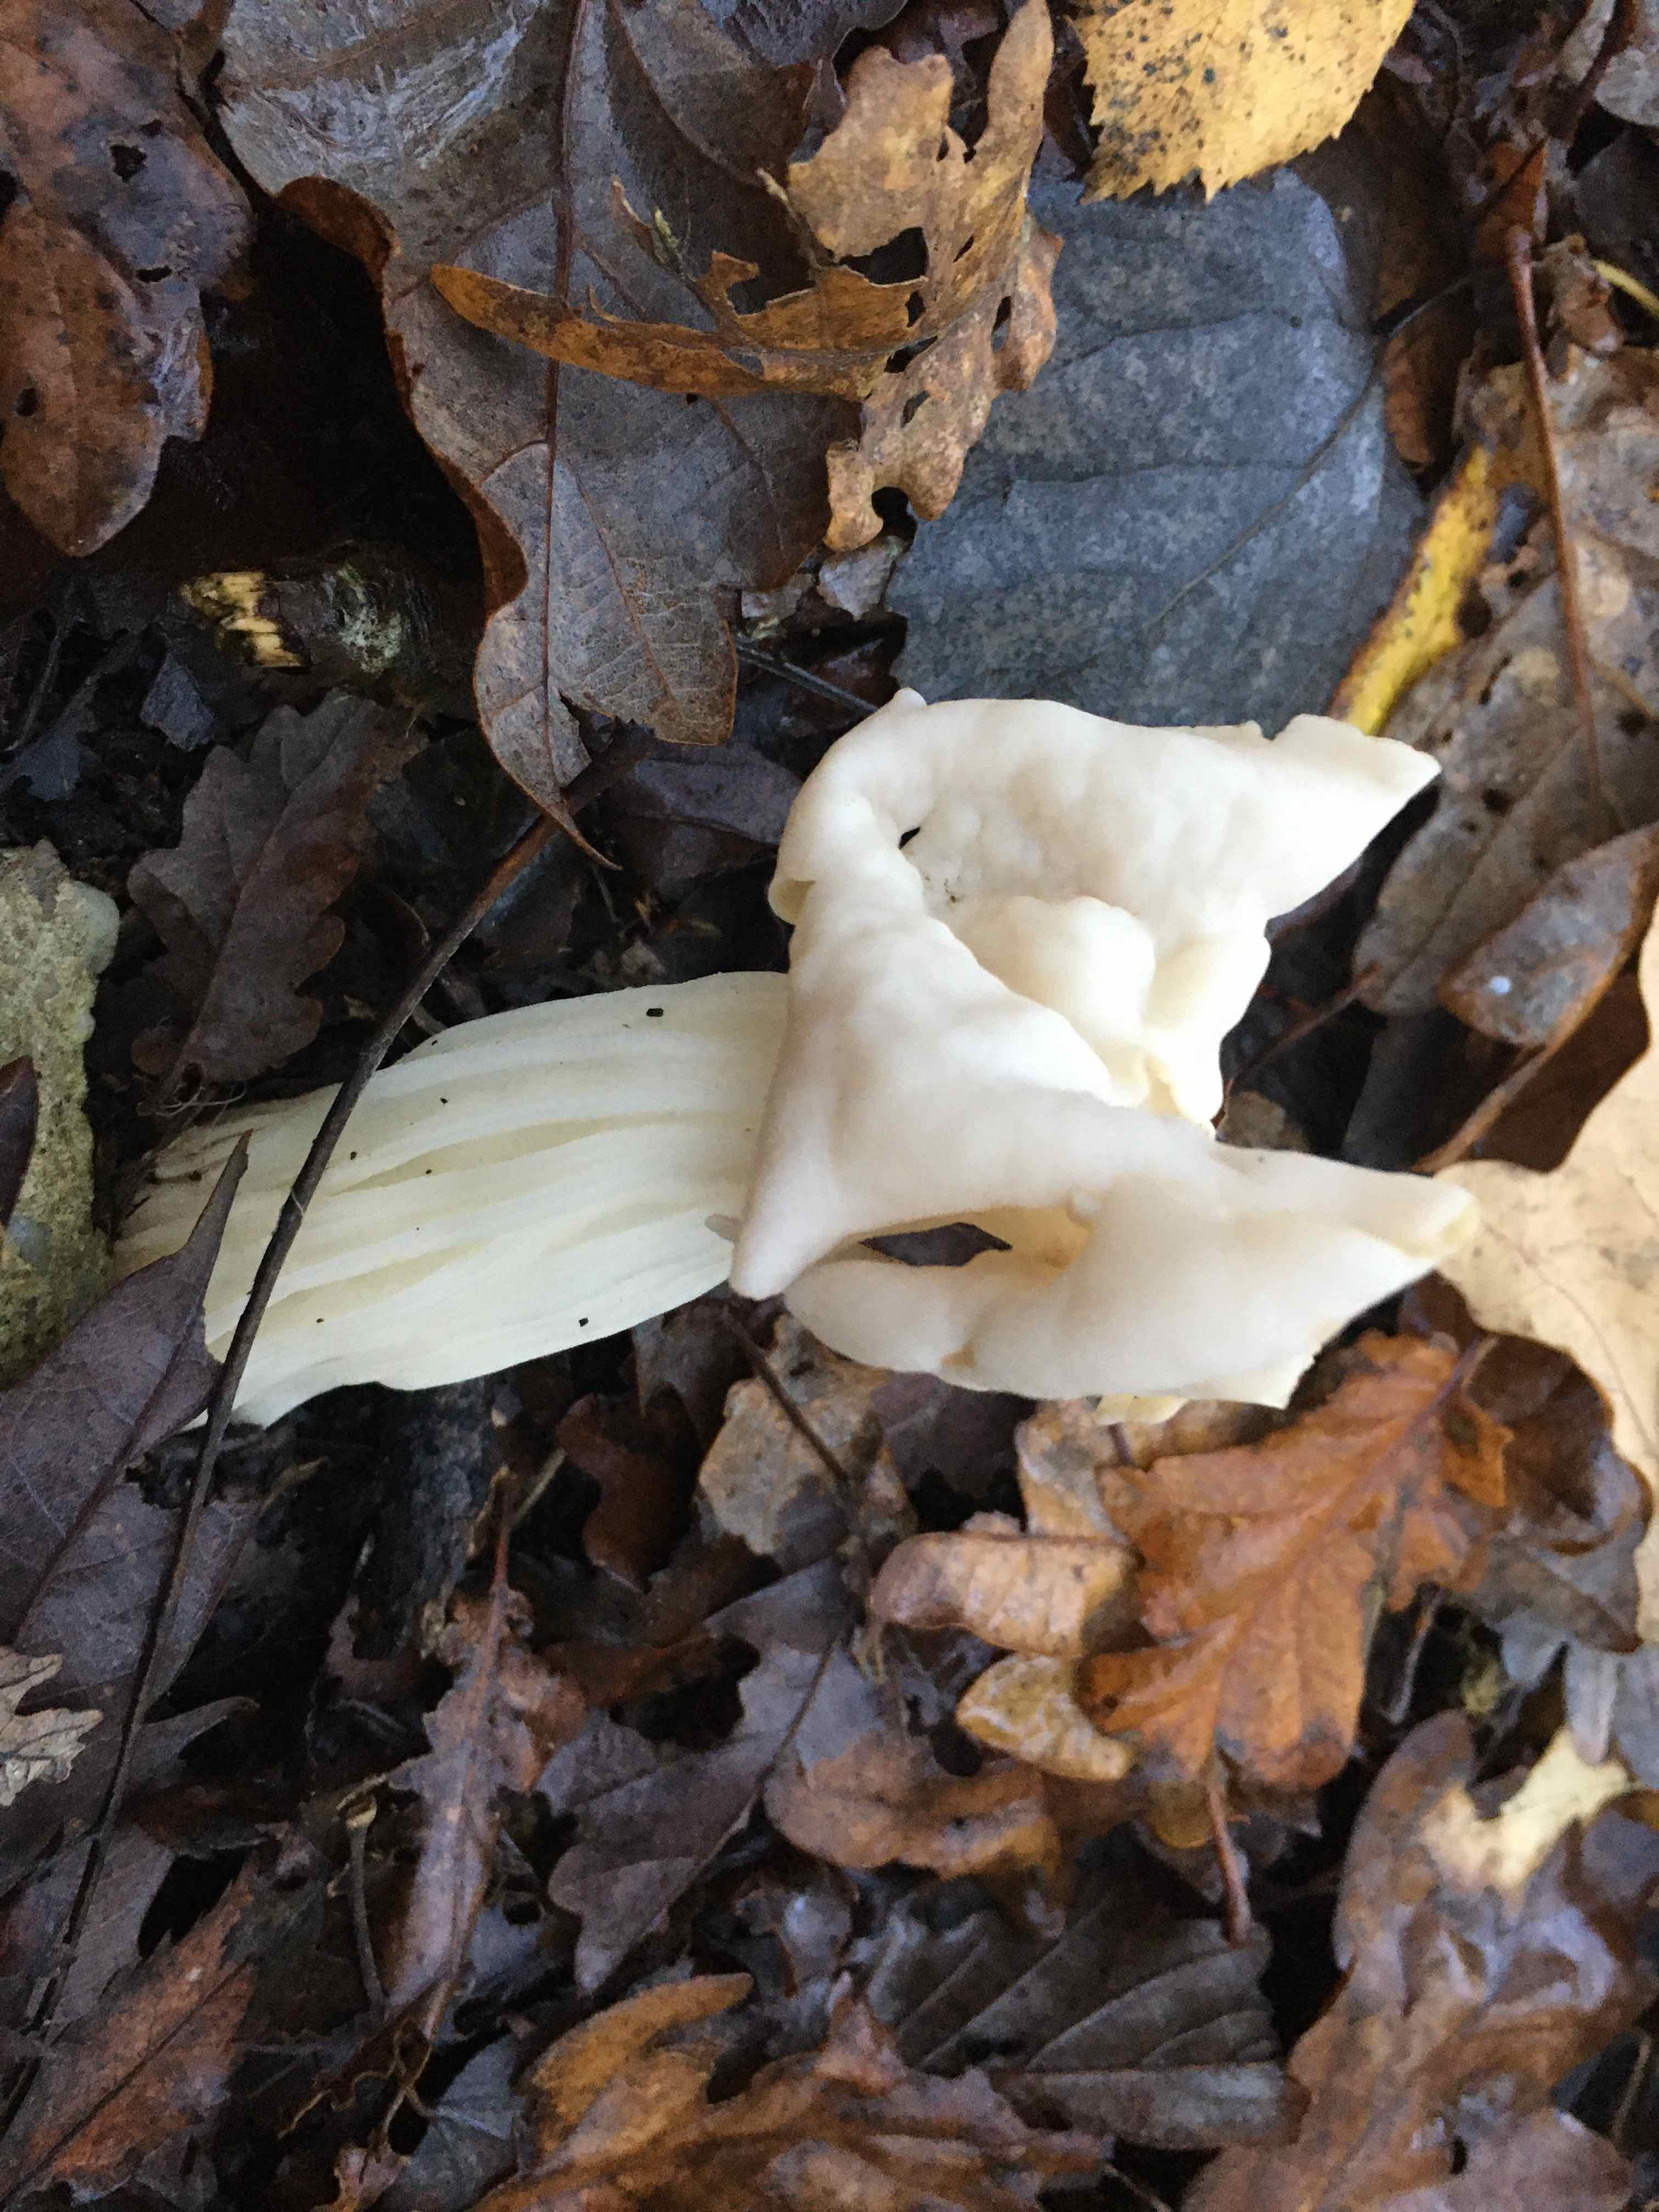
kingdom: Fungi
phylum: Ascomycota
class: Pezizomycetes
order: Pezizales
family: Helvellaceae
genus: Helvella
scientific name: Helvella crispa
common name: kruset foldhat
